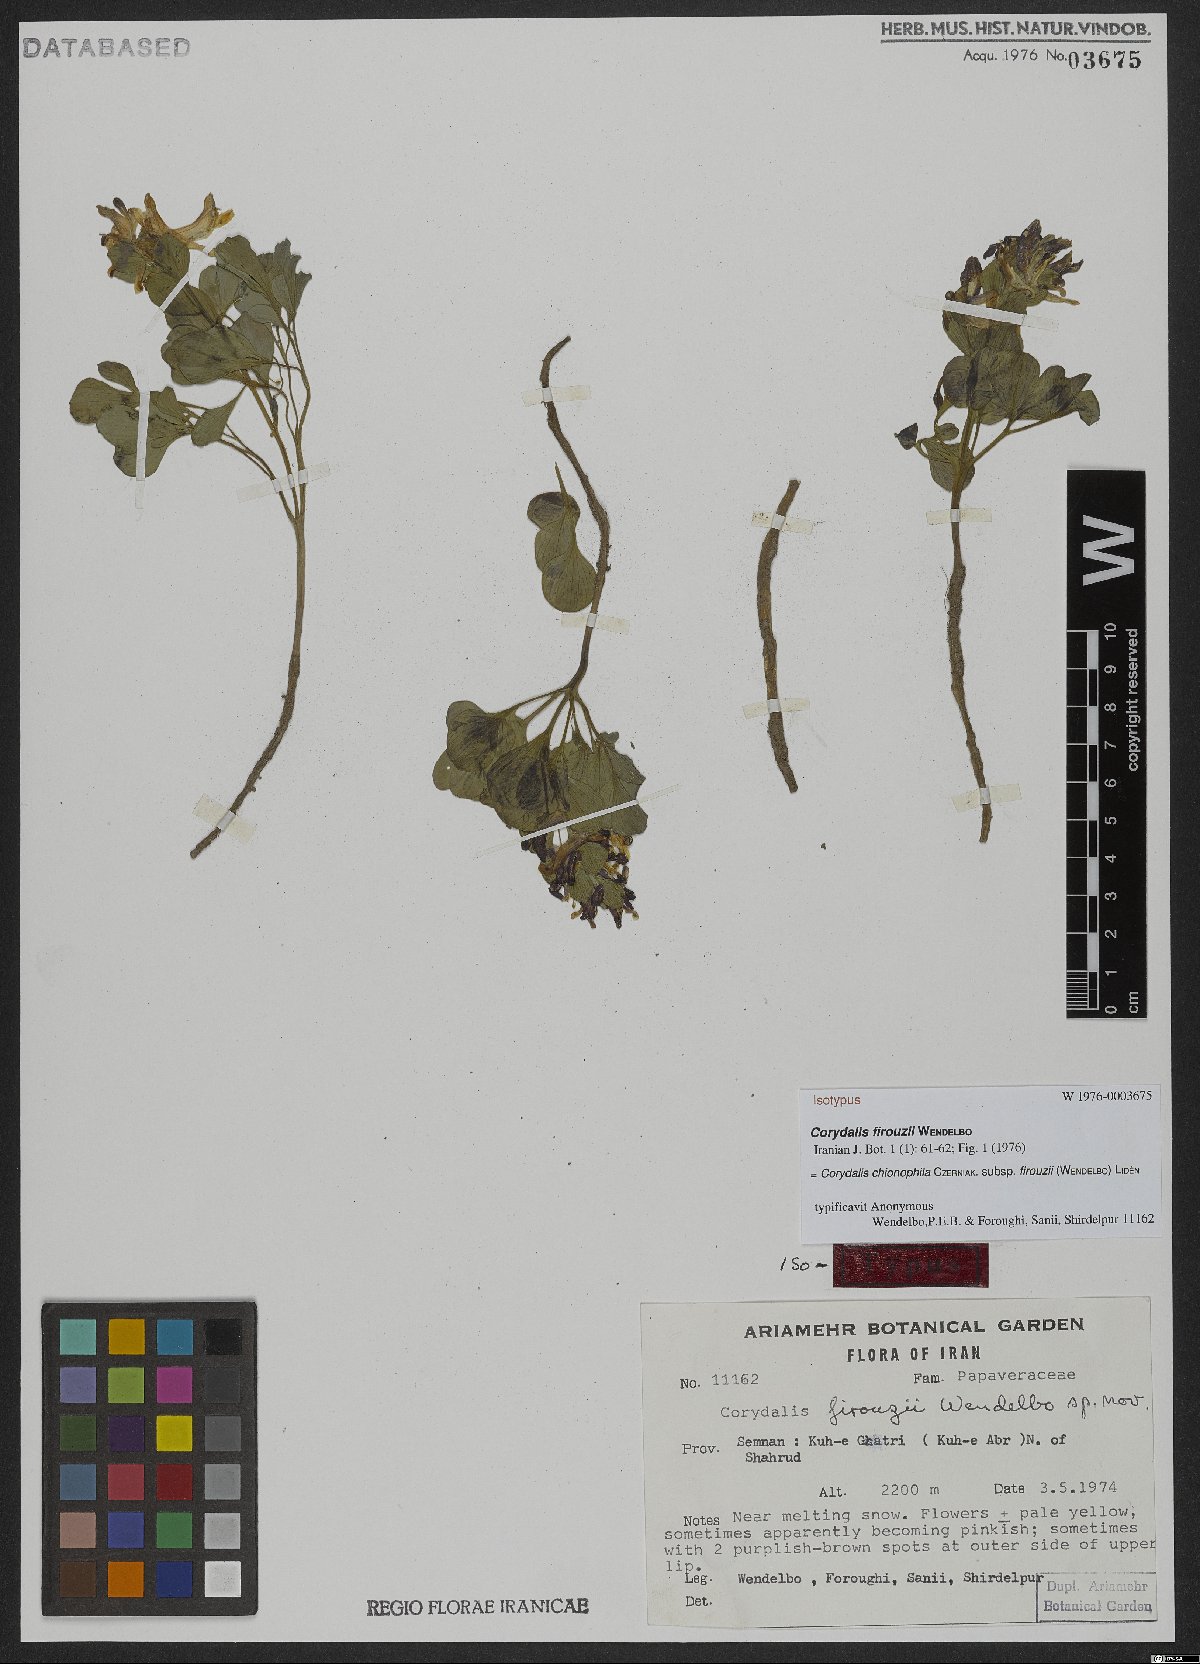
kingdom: Plantae
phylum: Tracheophyta
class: Magnoliopsida
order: Ranunculales
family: Papaveraceae
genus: Corydalis
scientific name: Corydalis chionophila
